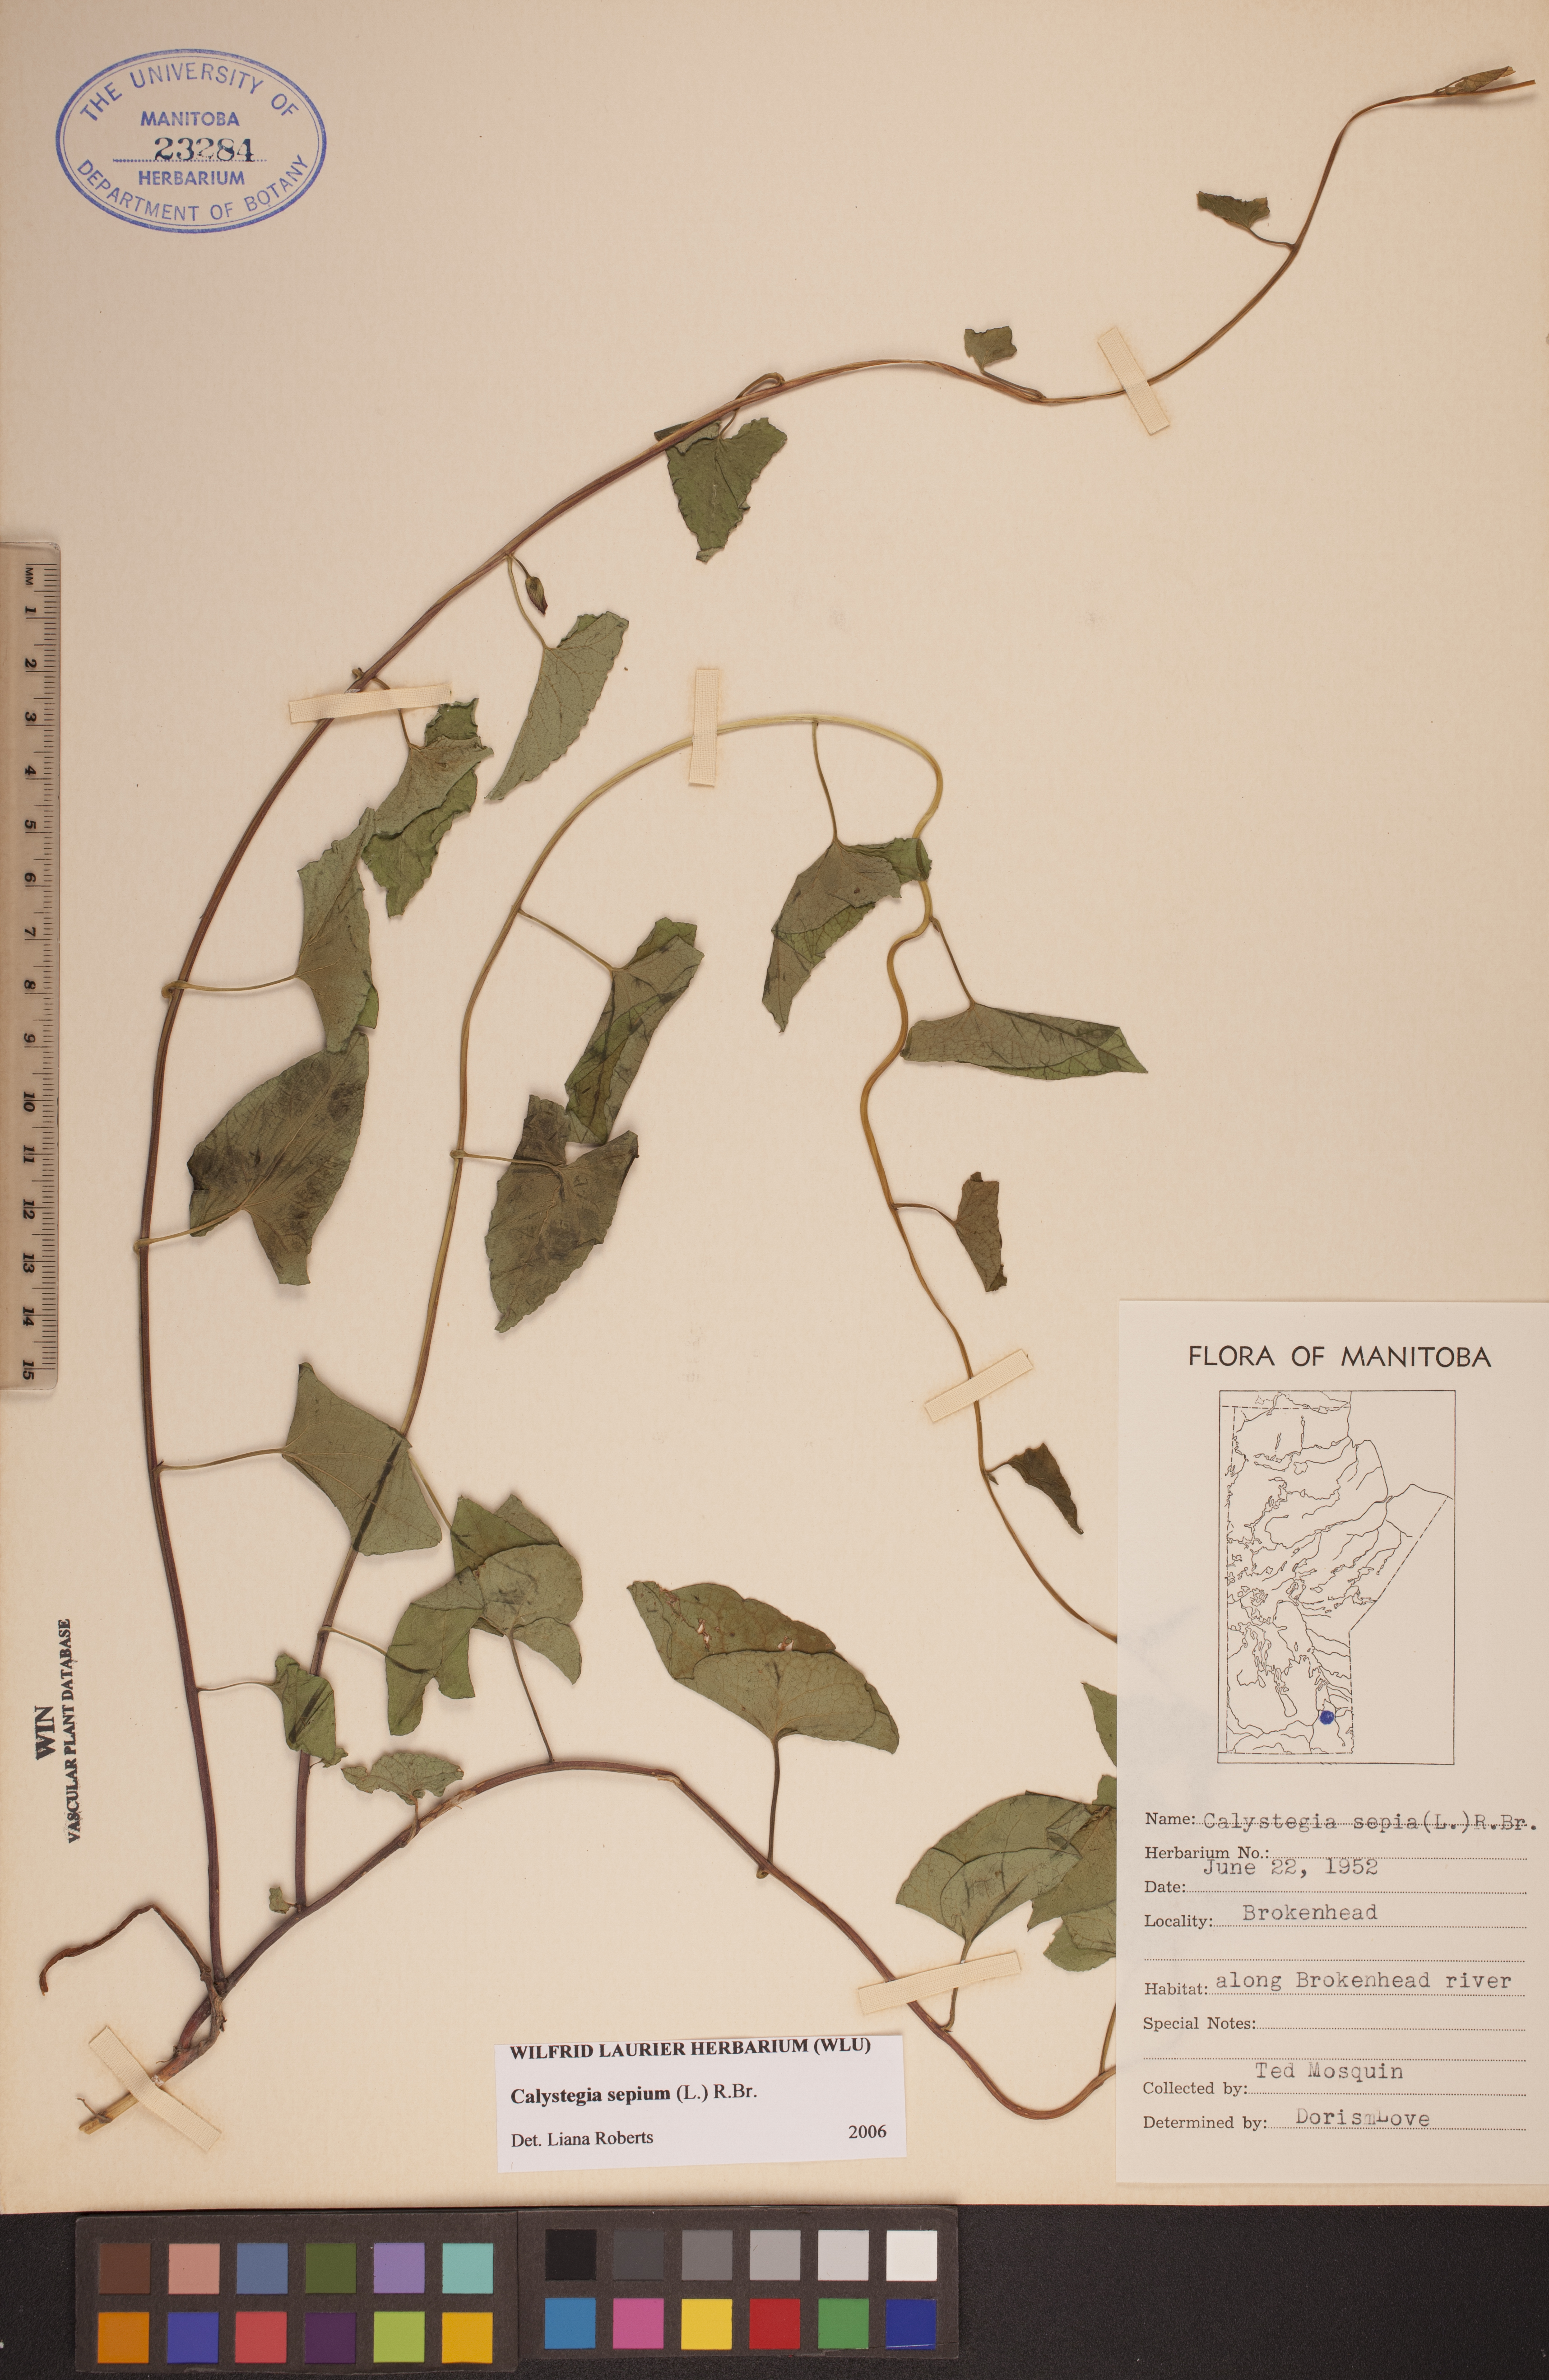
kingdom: Plantae
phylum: Tracheophyta
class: Magnoliopsida
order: Solanales
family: Convolvulaceae
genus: Calystegia
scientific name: Calystegia sepium
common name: Hedge bindweed
